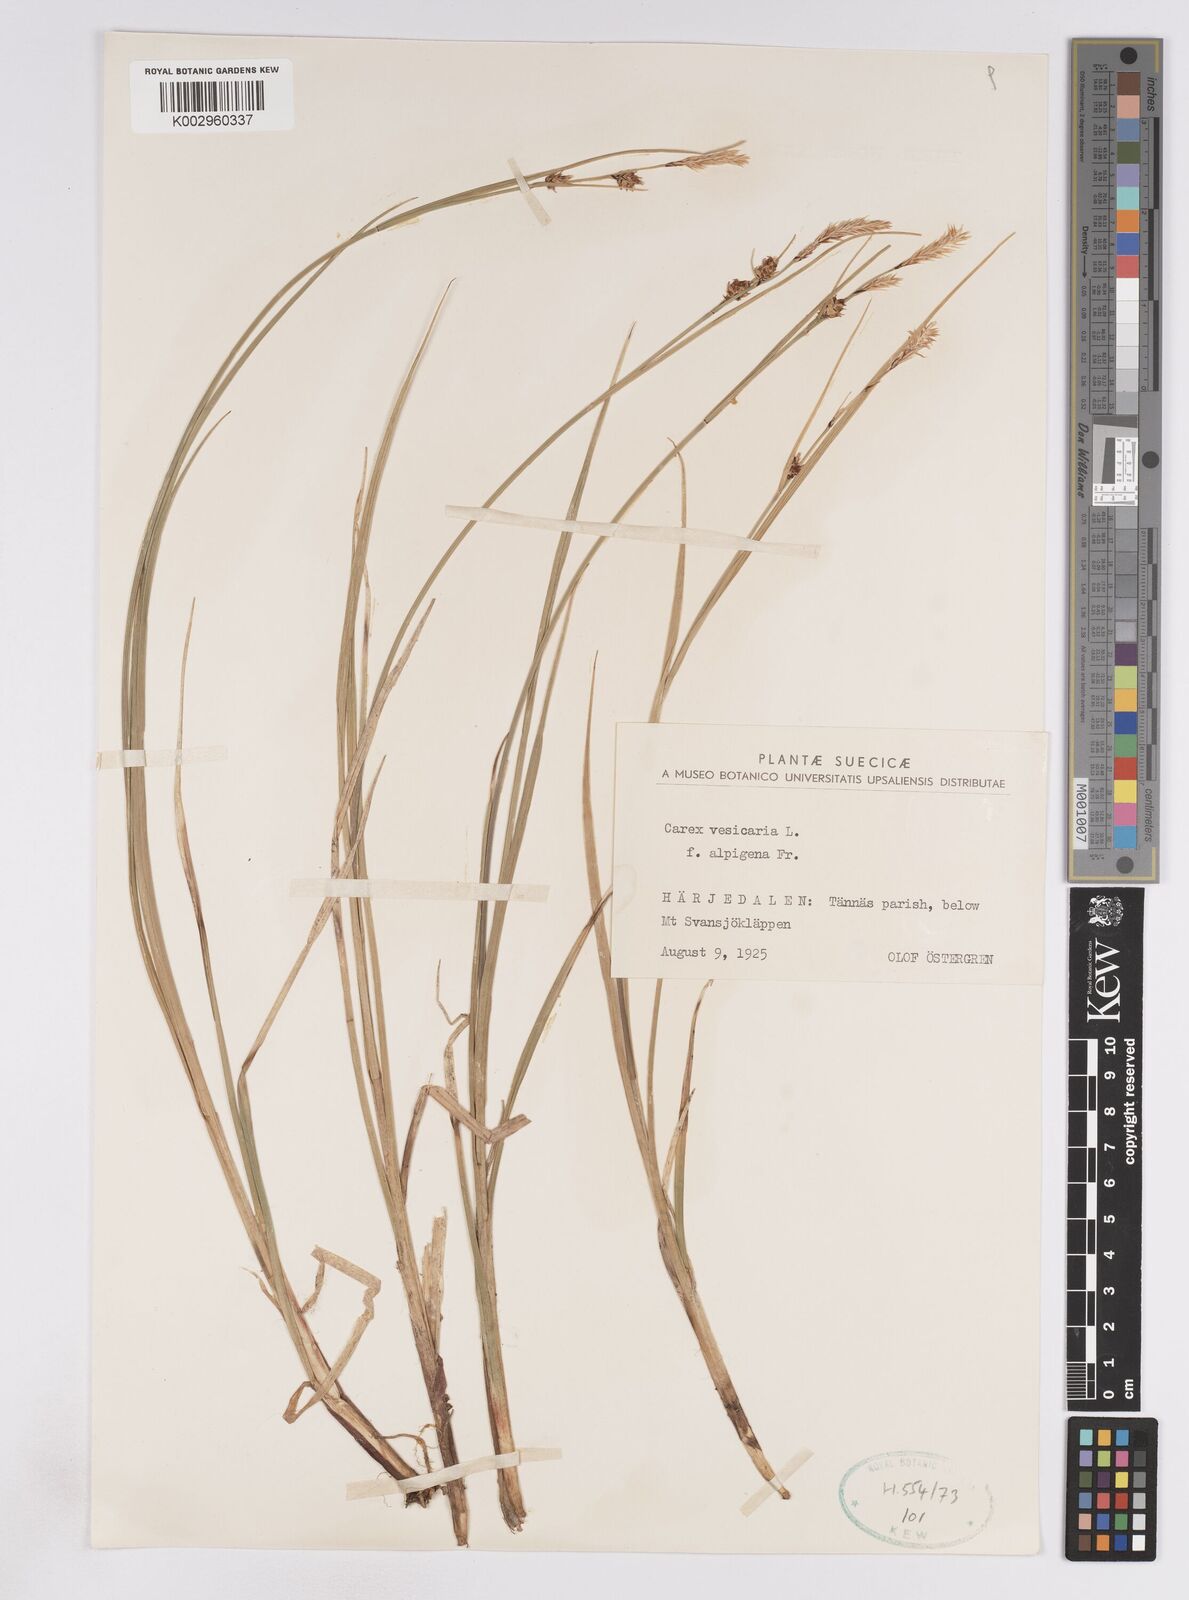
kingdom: Plantae
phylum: Tracheophyta
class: Liliopsida
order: Poales
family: Cyperaceae
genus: Carex
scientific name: Carex vesicaria
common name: Bladder-sedge
